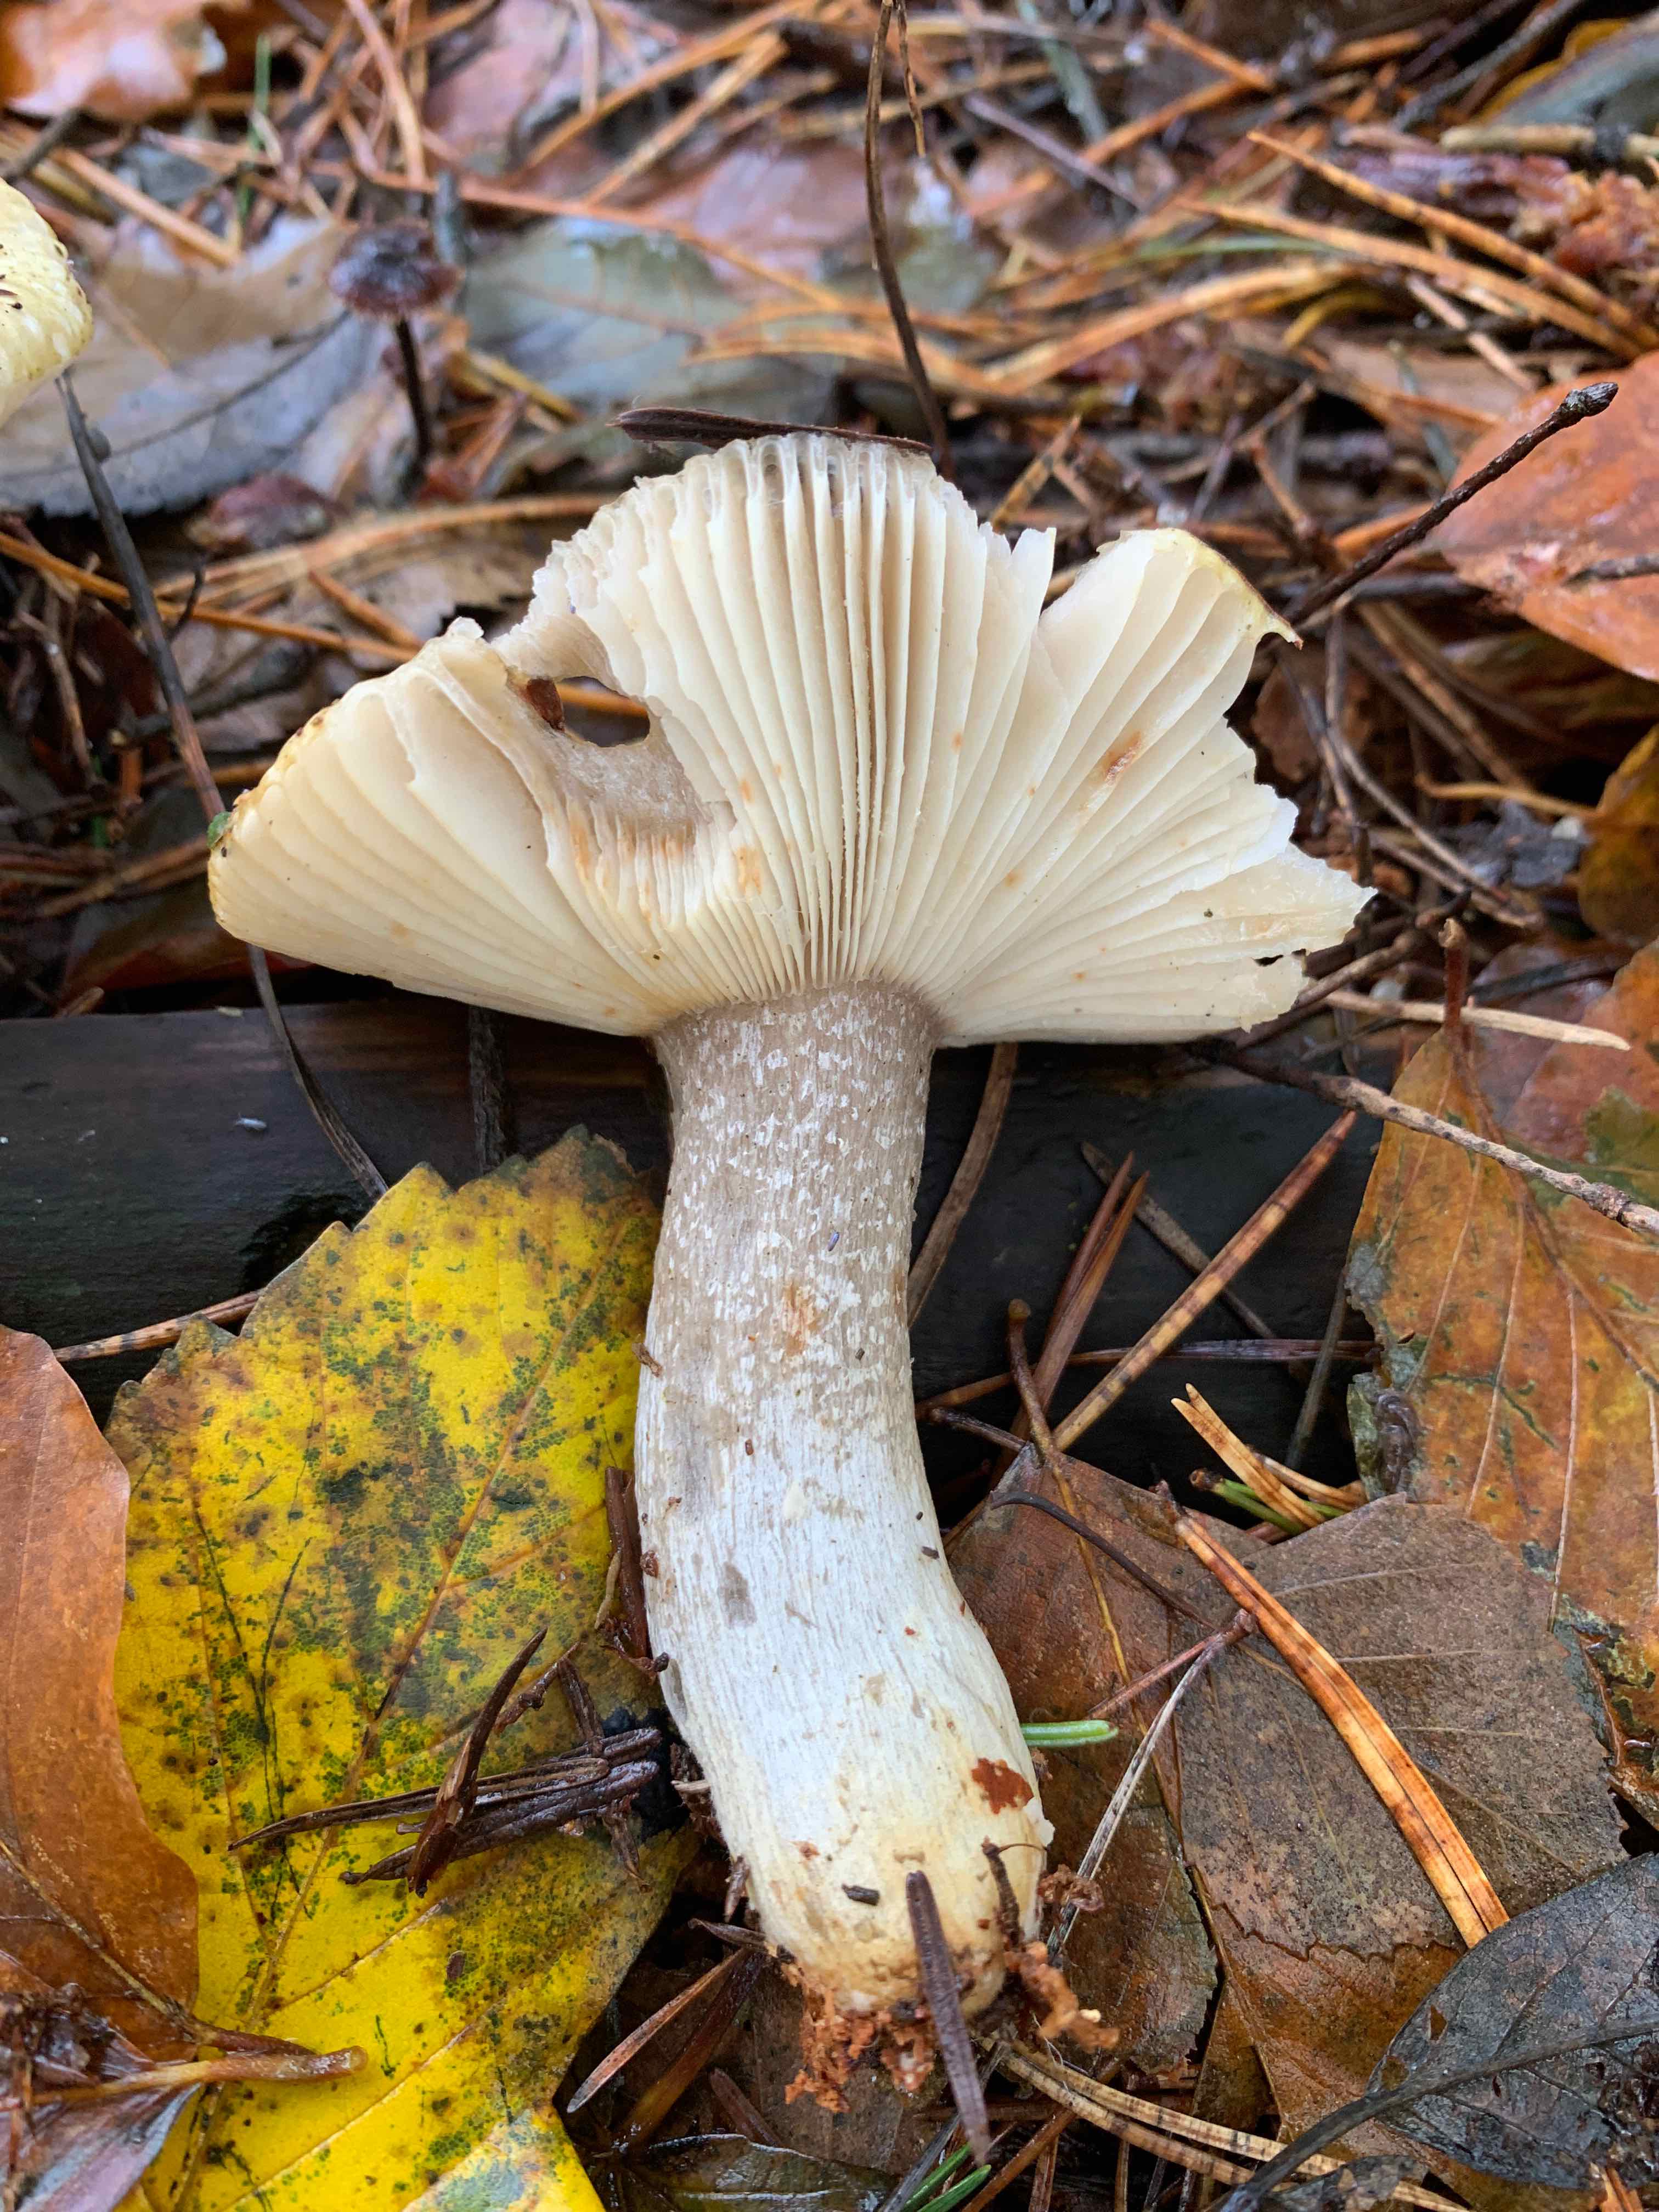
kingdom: Fungi
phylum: Basidiomycota
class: Agaricomycetes
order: Russulales
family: Russulaceae
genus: Russula
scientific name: Russula ochroleuca
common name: okkergul skørhat
